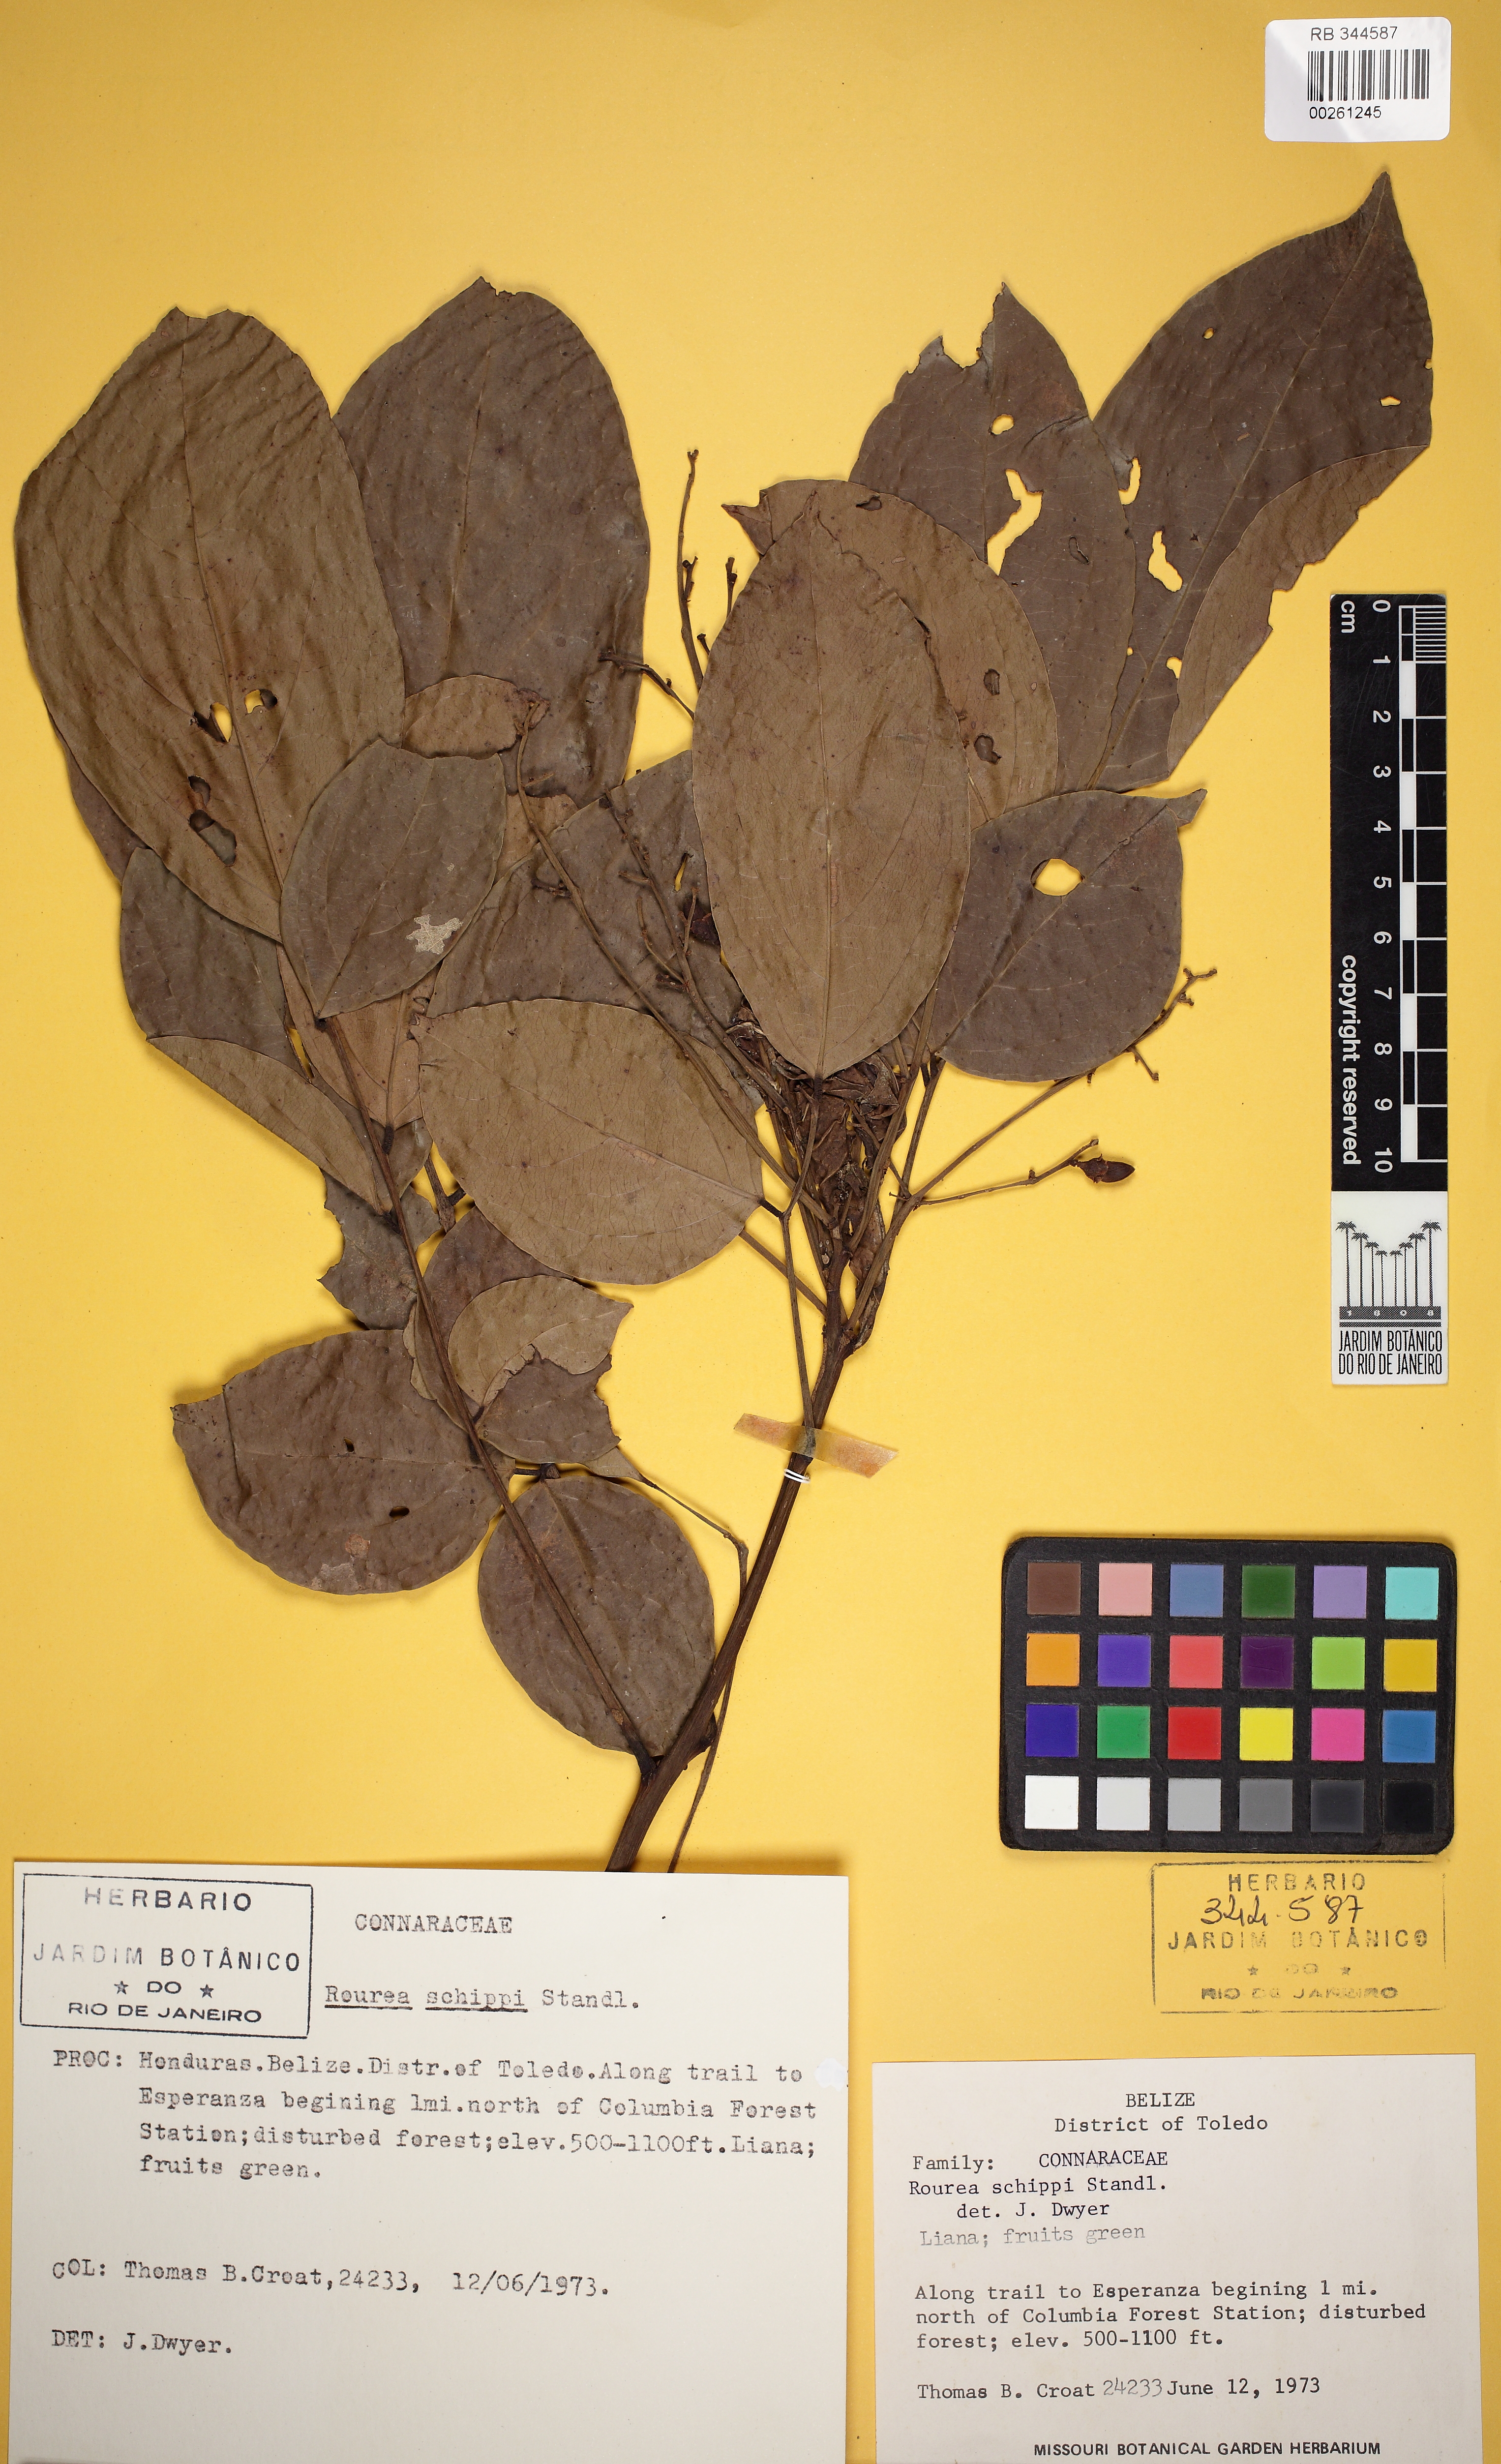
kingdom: Plantae
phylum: Tracheophyta
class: Magnoliopsida
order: Oxalidales
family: Connaraceae
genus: Rourea
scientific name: Rourea schippii
